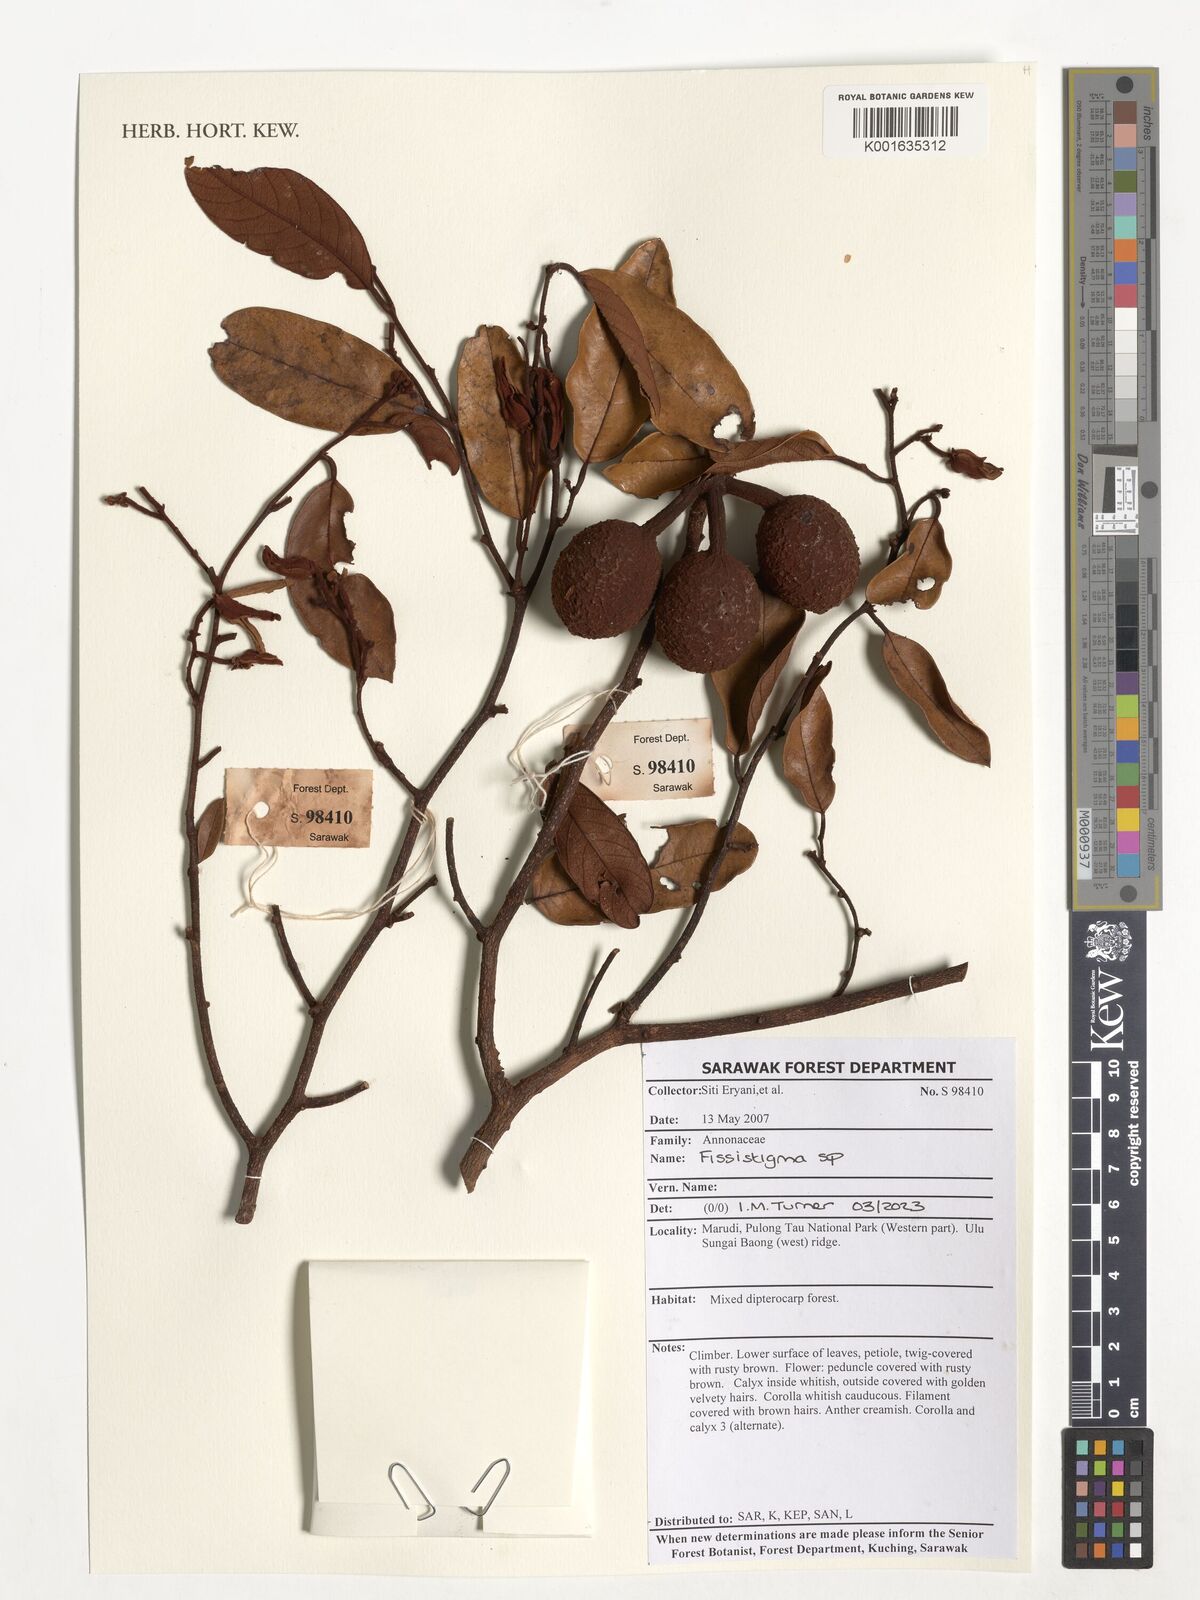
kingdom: Plantae
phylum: Tracheophyta
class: Magnoliopsida
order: Magnoliales
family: Annonaceae
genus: Fissistigma
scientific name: Fissistigma
